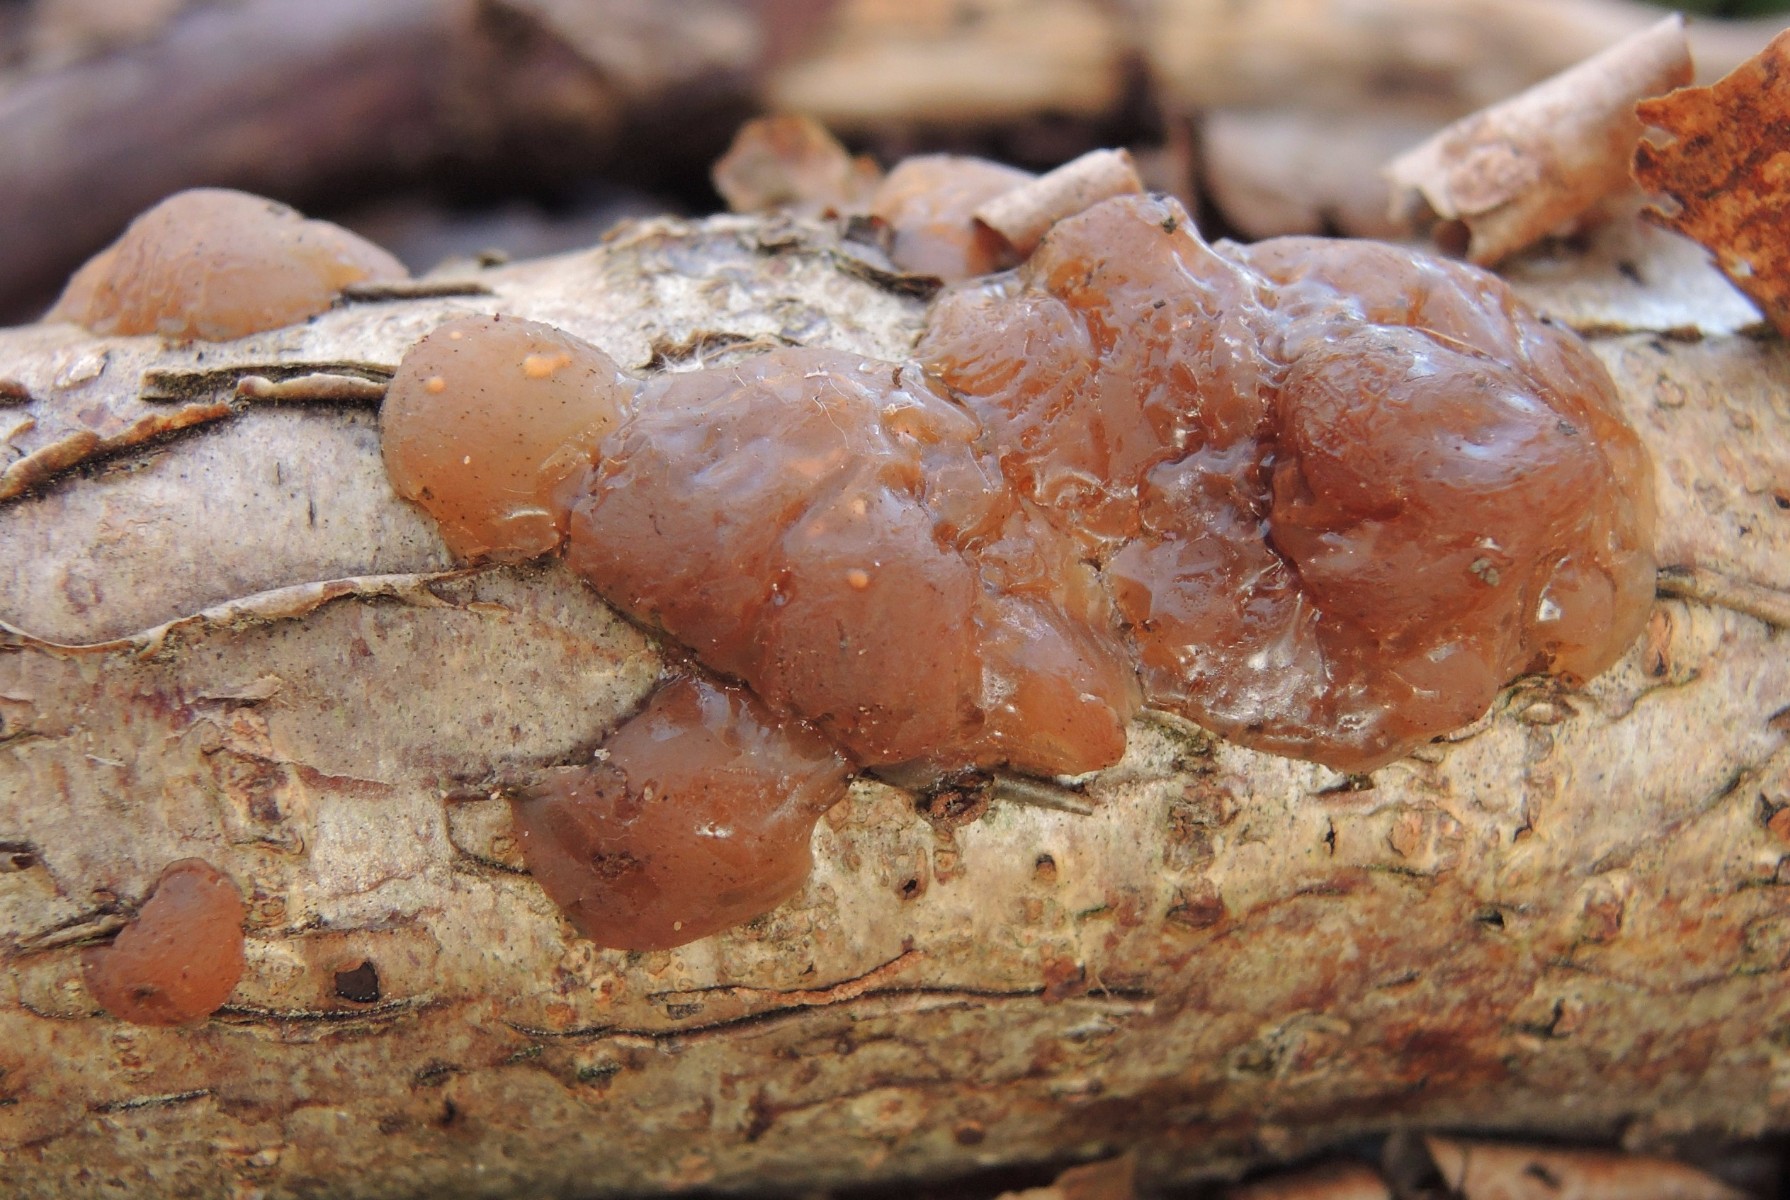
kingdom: Fungi
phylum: Basidiomycota
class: Agaricomycetes
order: Auriculariales
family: Hyaloriaceae
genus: Myxarium
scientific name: Myxarium hyalinum
